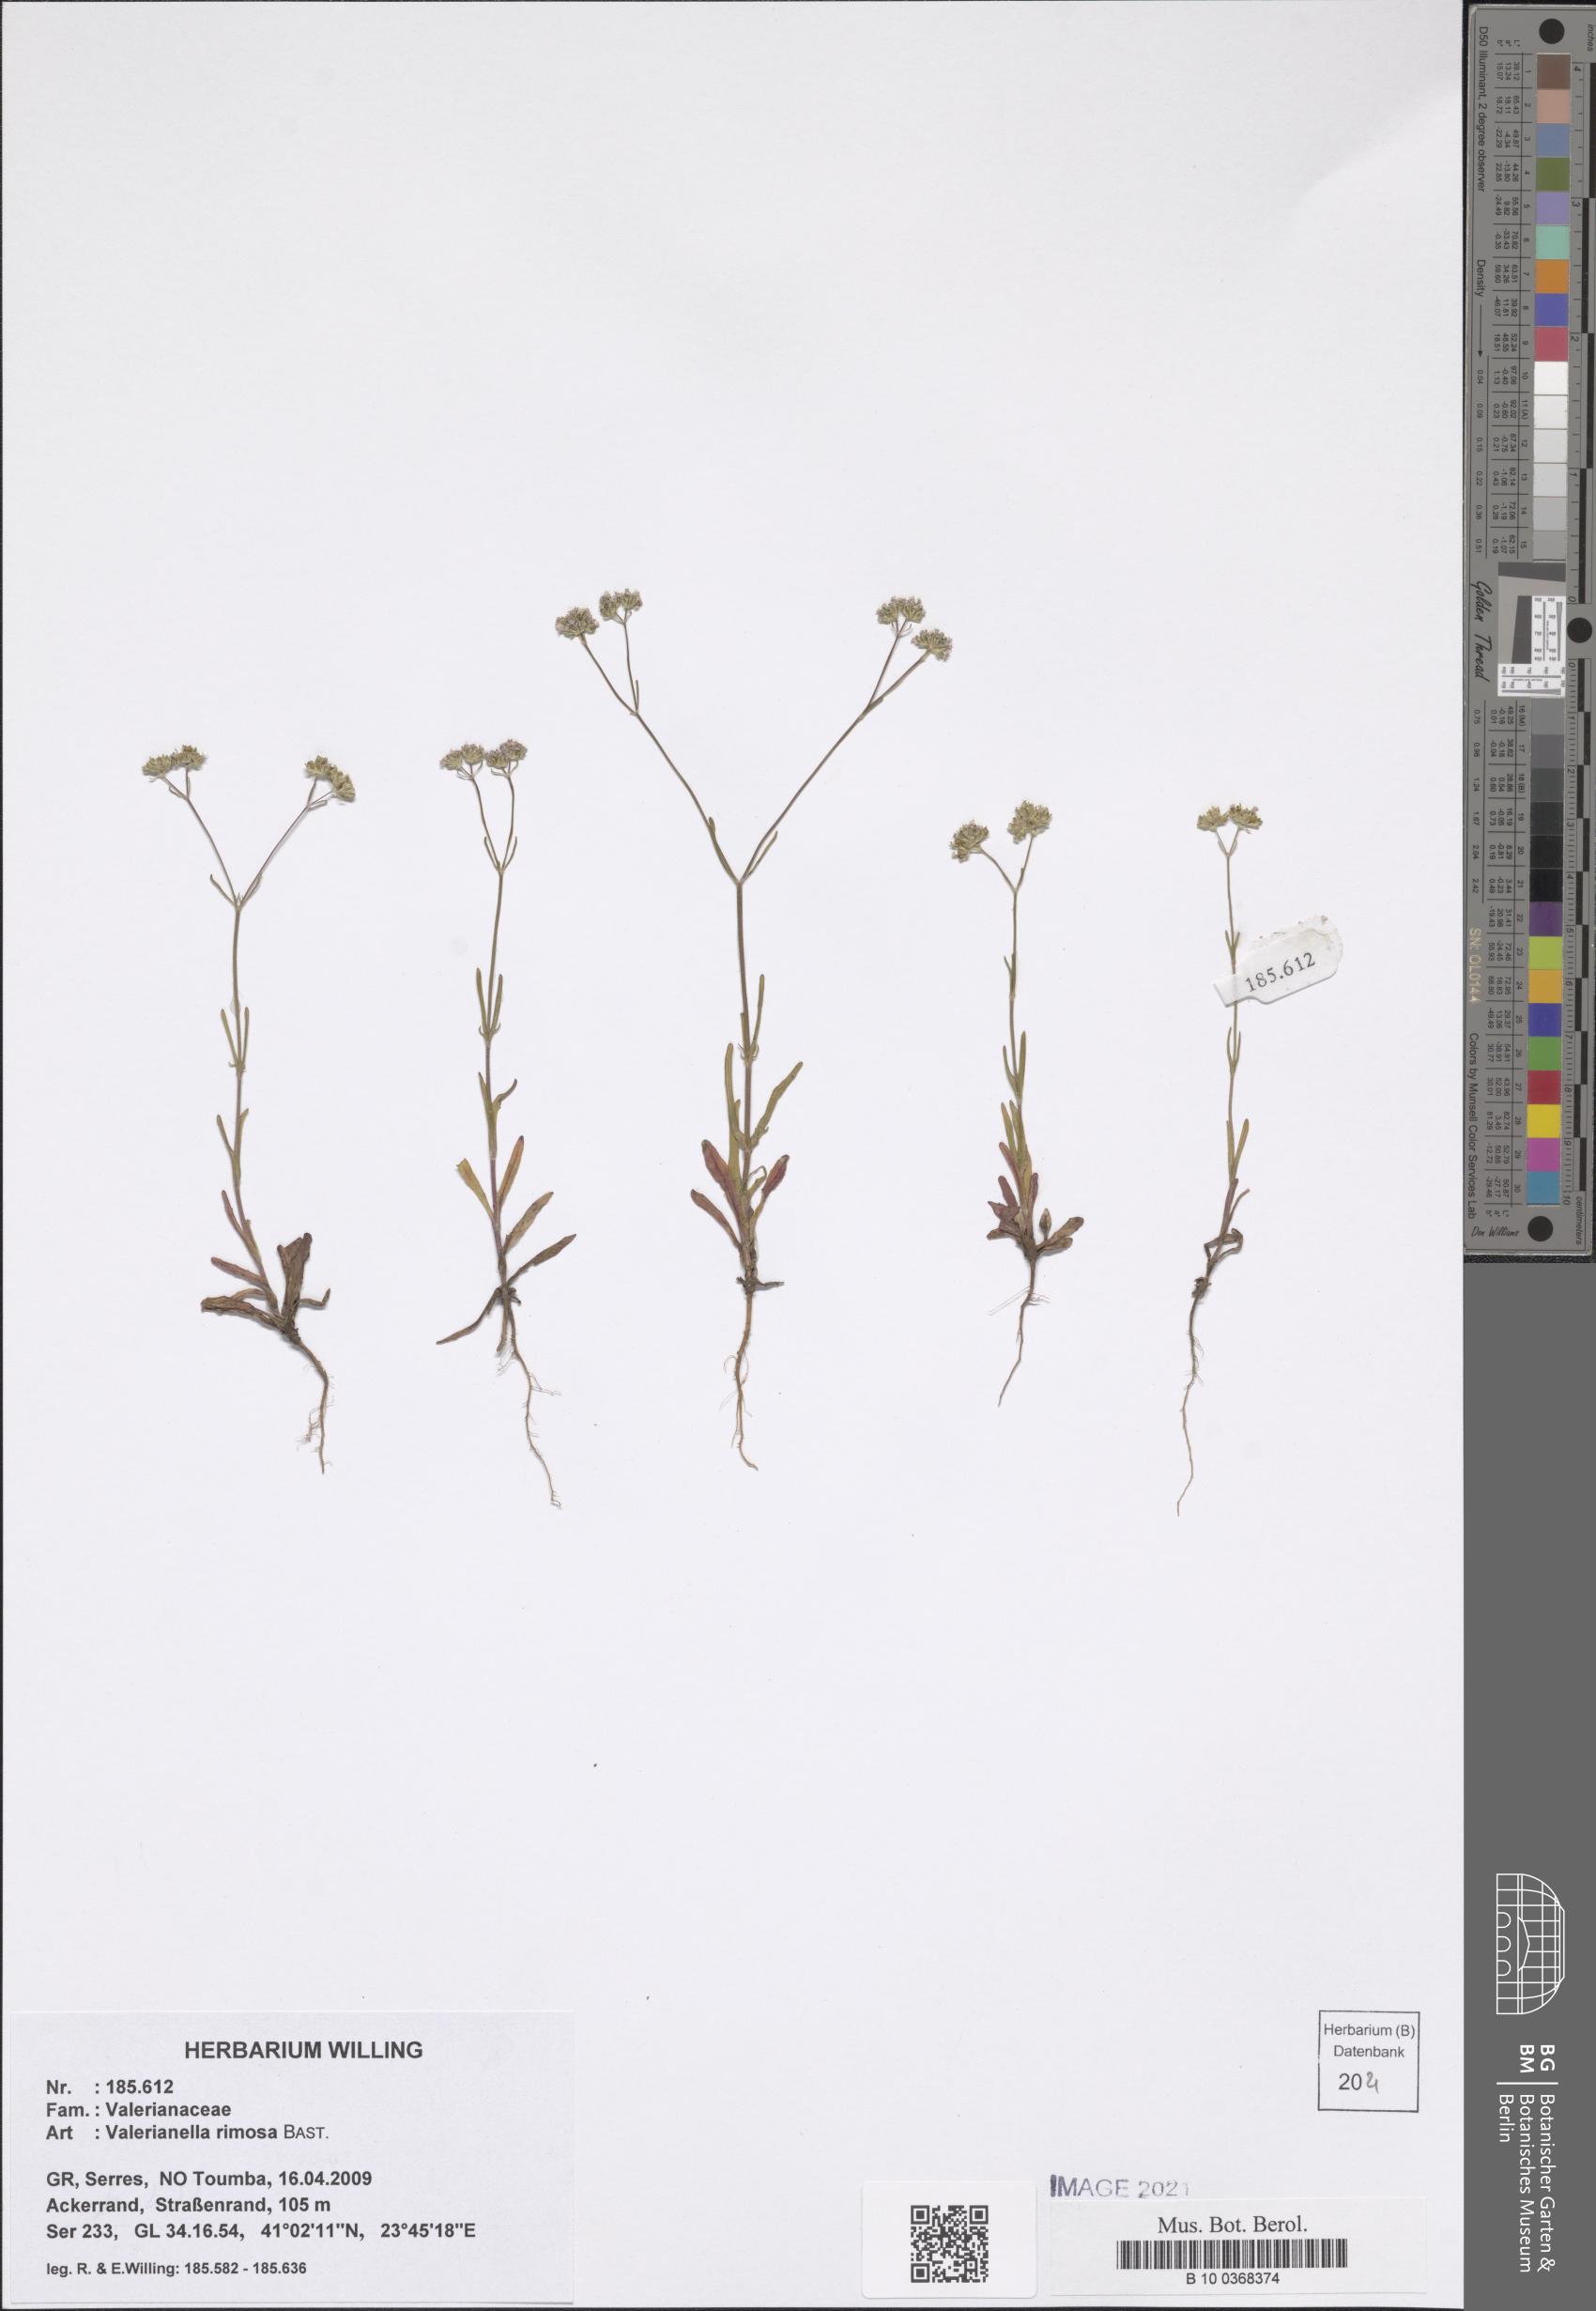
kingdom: Plantae
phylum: Tracheophyta
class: Magnoliopsida
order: Dipsacales
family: Caprifoliaceae
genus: Valerianella
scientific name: Valerianella rimosa
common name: Broad-fruited cornsalad
